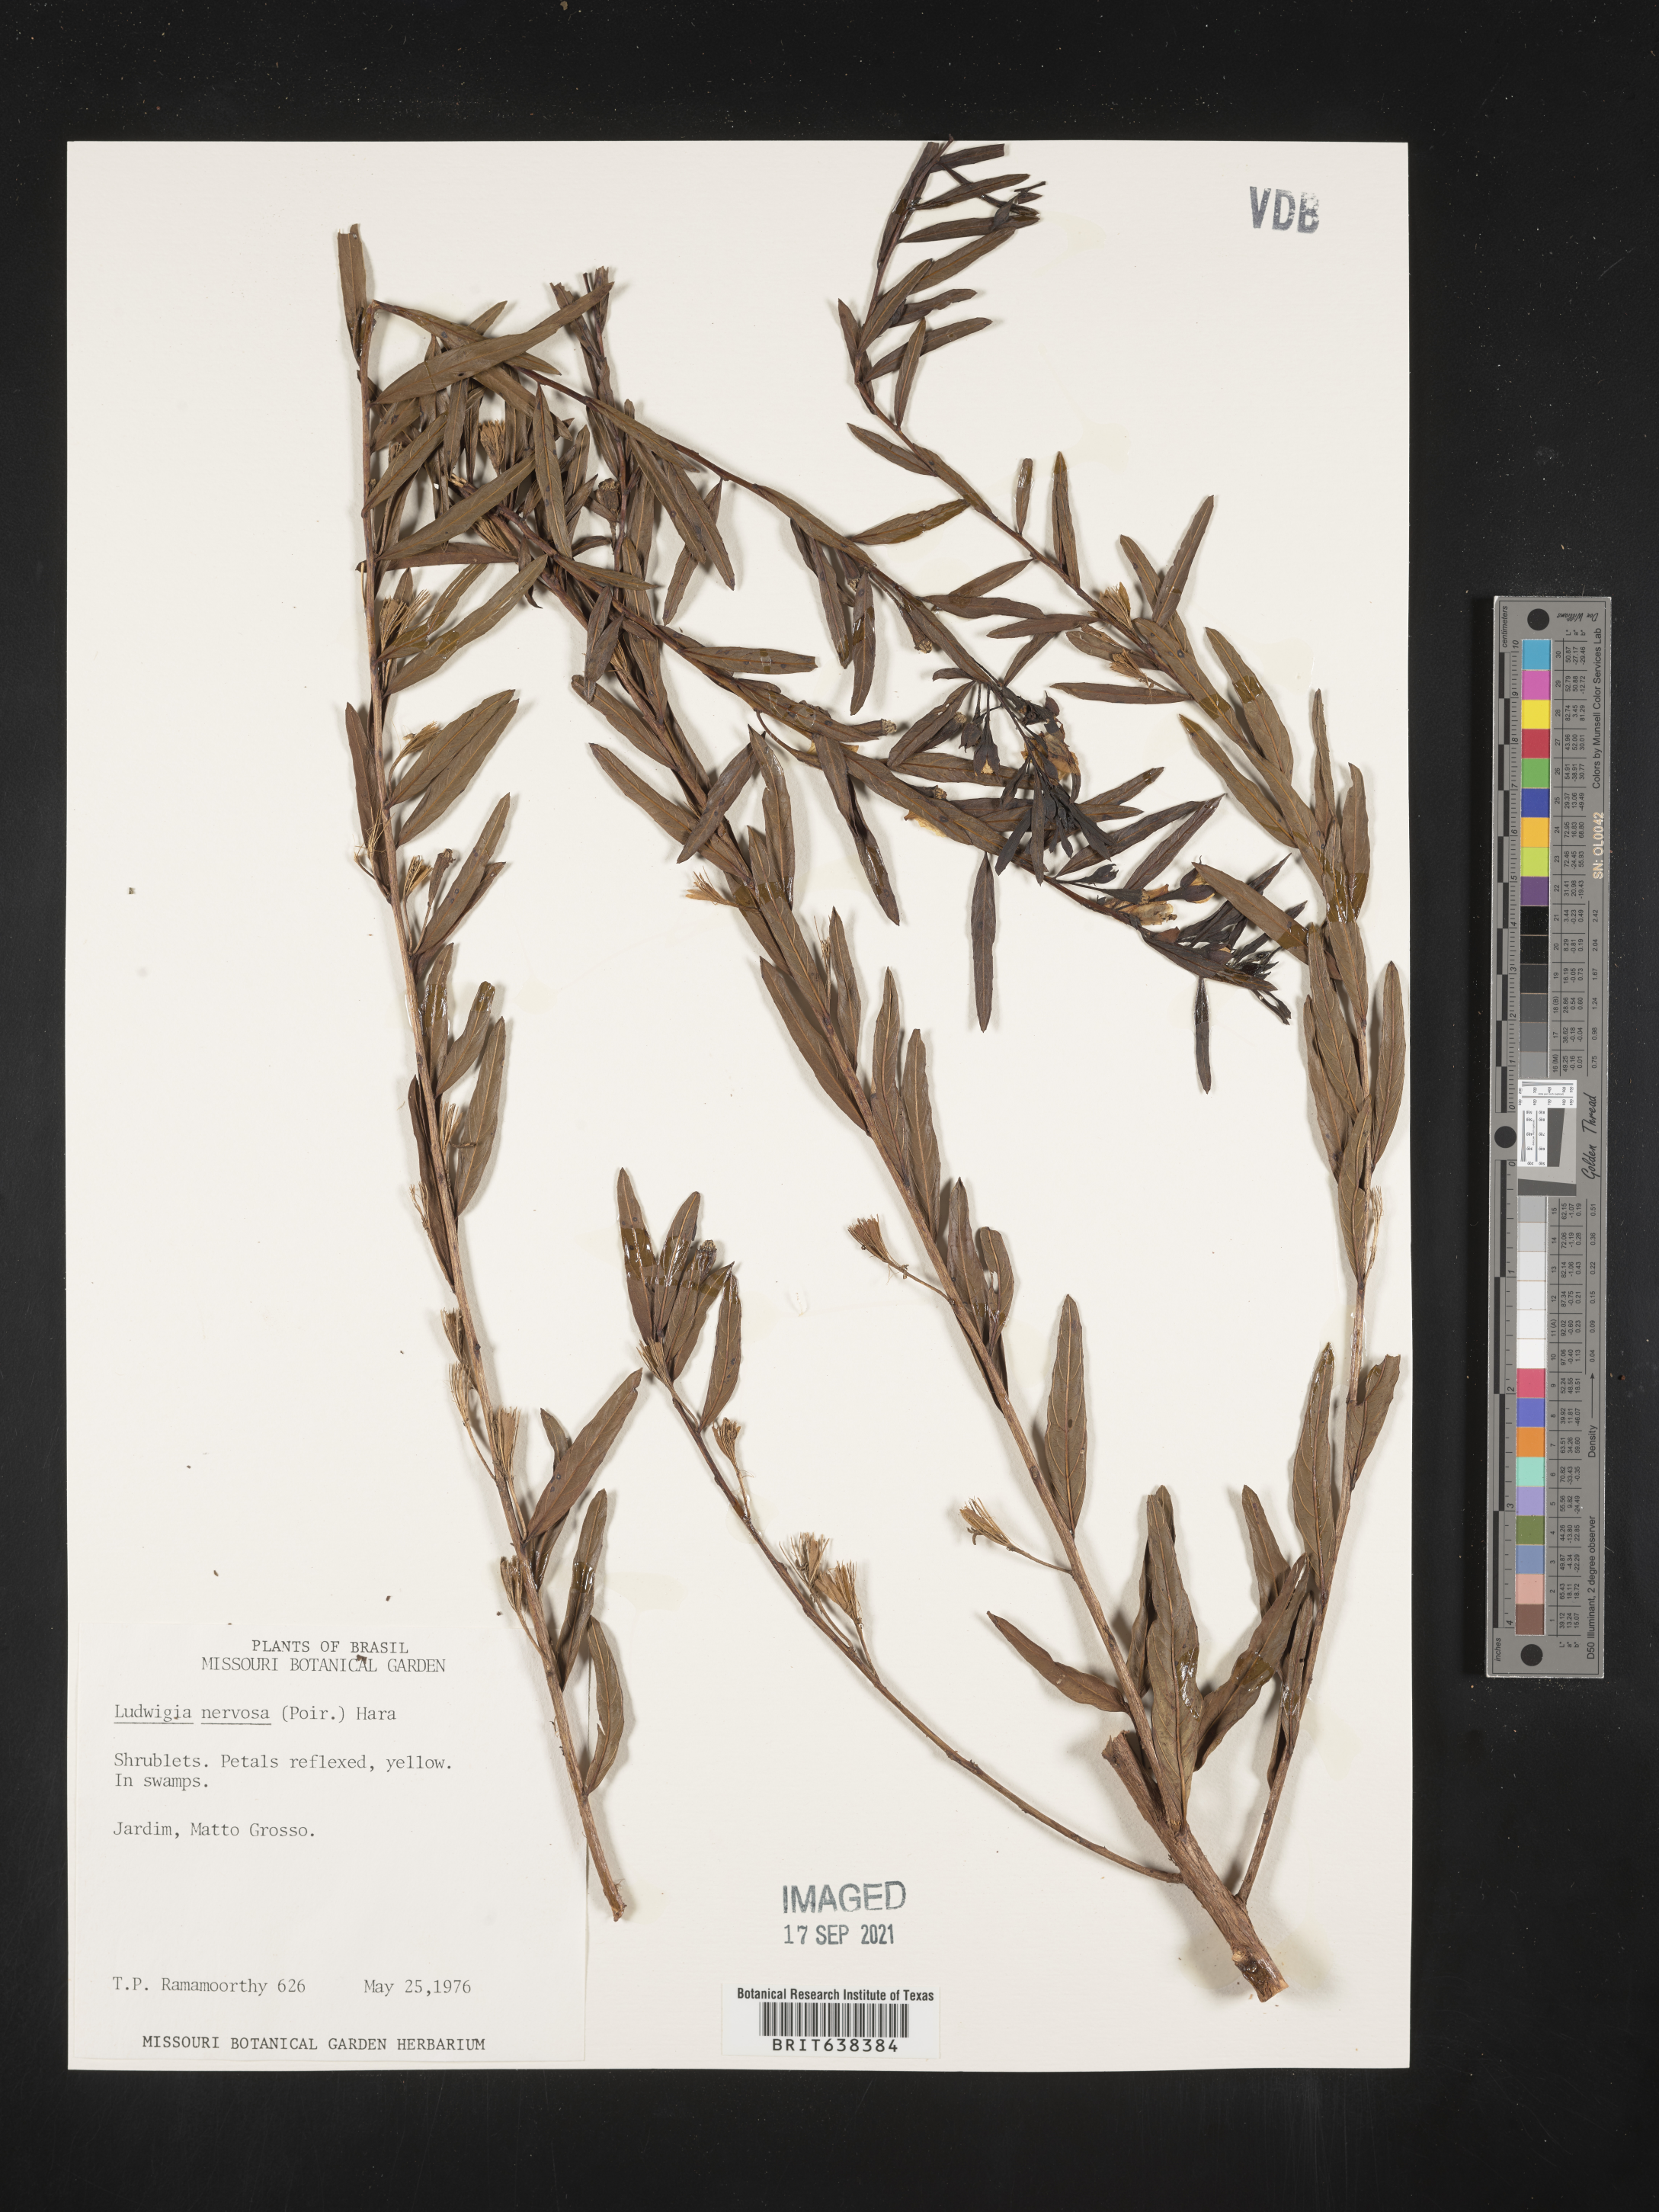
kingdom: Plantae
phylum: Tracheophyta
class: Magnoliopsida
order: Myrtales
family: Onagraceae
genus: Ludwigia
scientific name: Ludwigia
